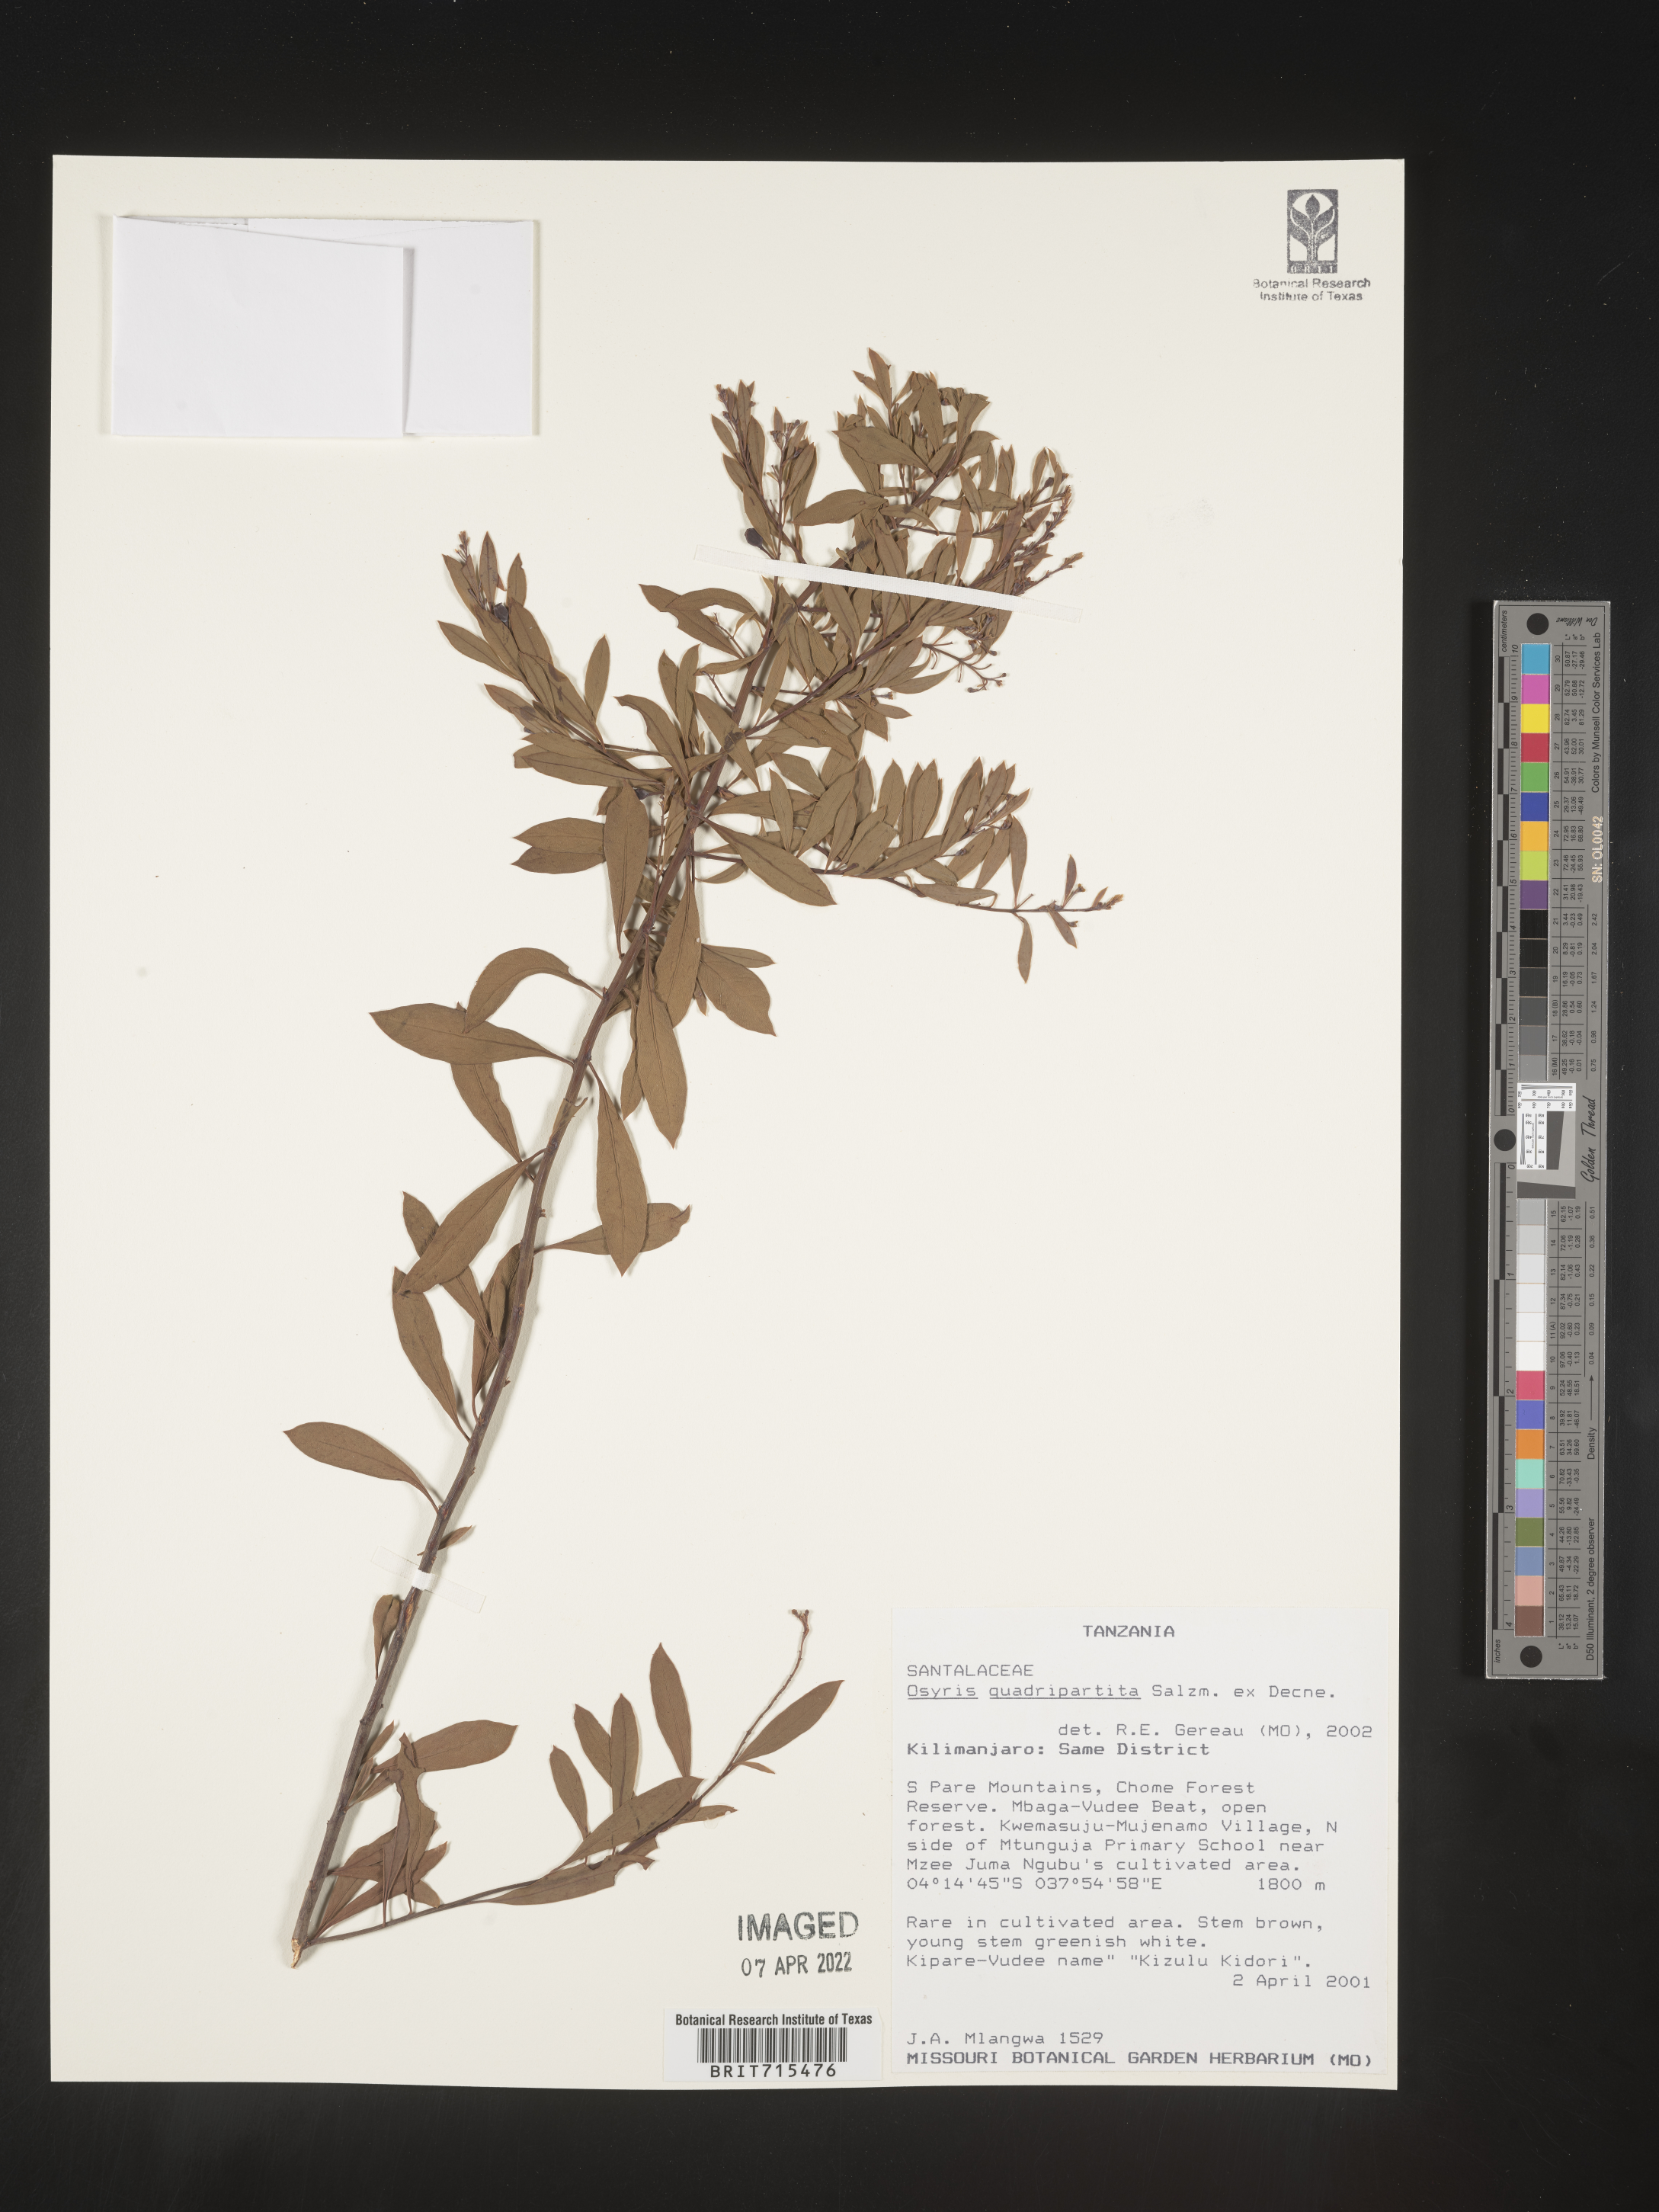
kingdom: Plantae
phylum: Tracheophyta
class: Magnoliopsida
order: Santalales
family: Santalaceae
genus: Osyris
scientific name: Osyris
